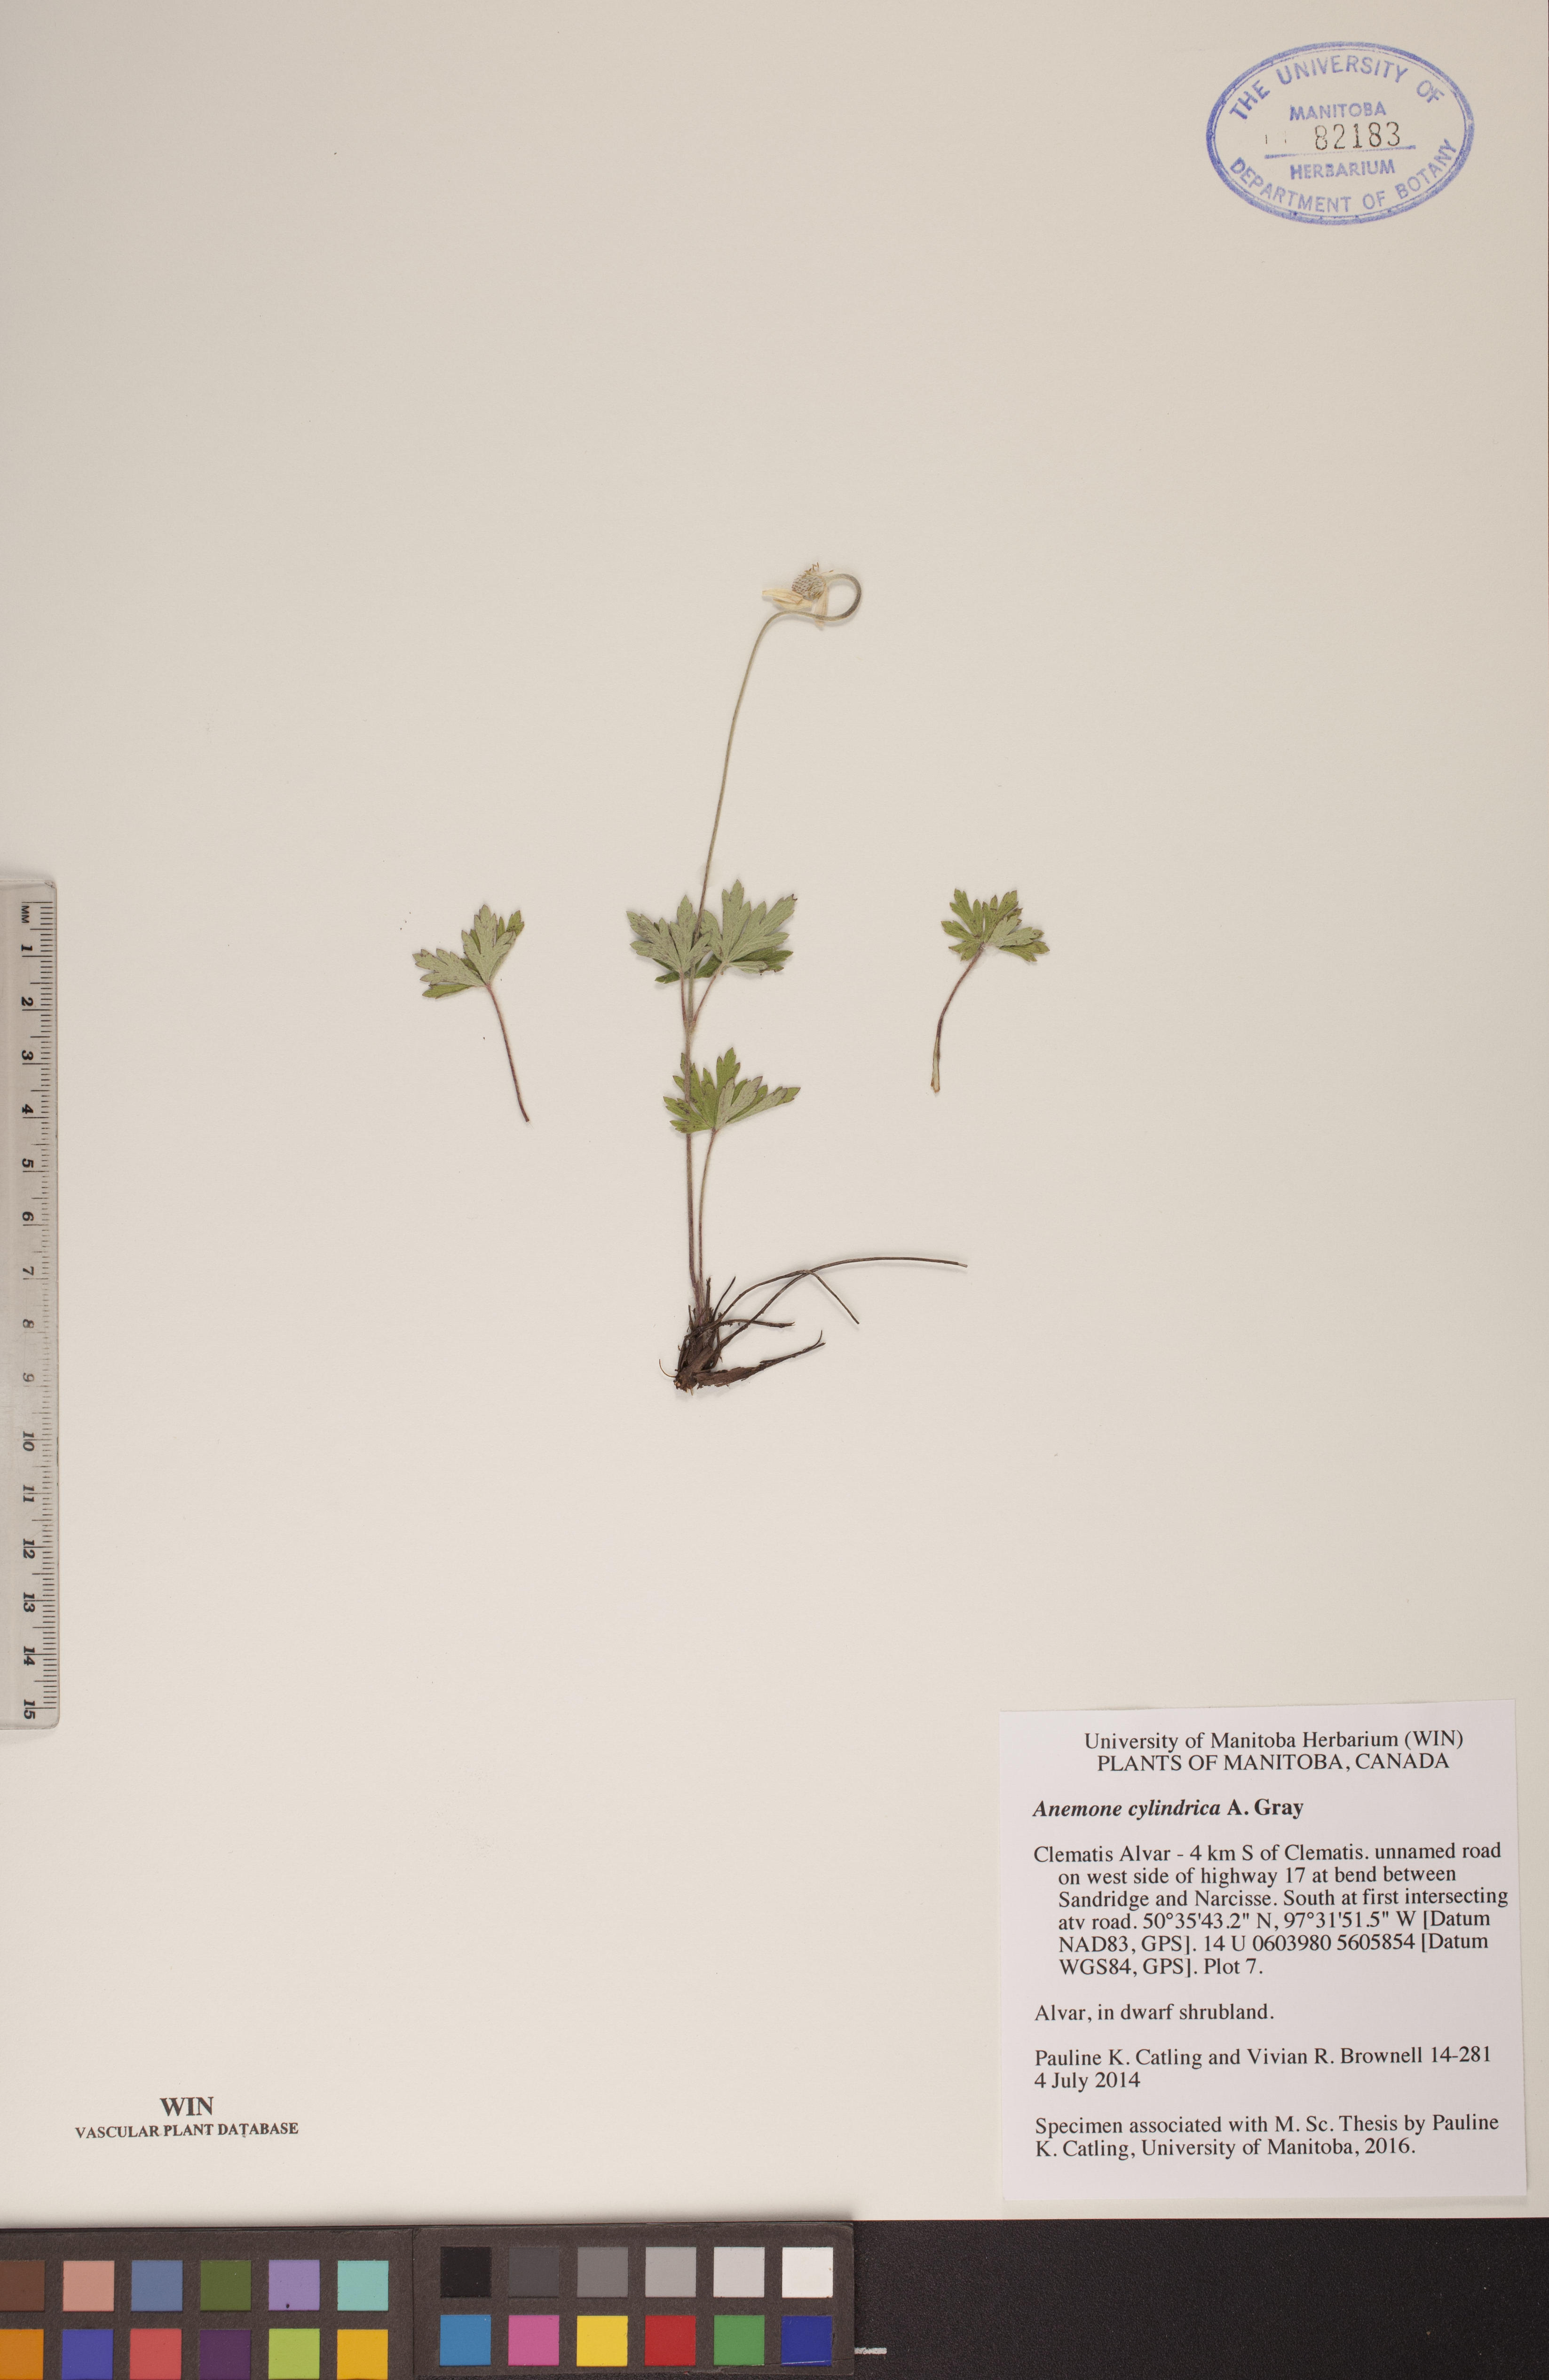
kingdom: Plantae
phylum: Tracheophyta
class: Magnoliopsida
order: Ranunculales
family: Ranunculaceae
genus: Anemone
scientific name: Anemone cylindrica
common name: Candle anemone
